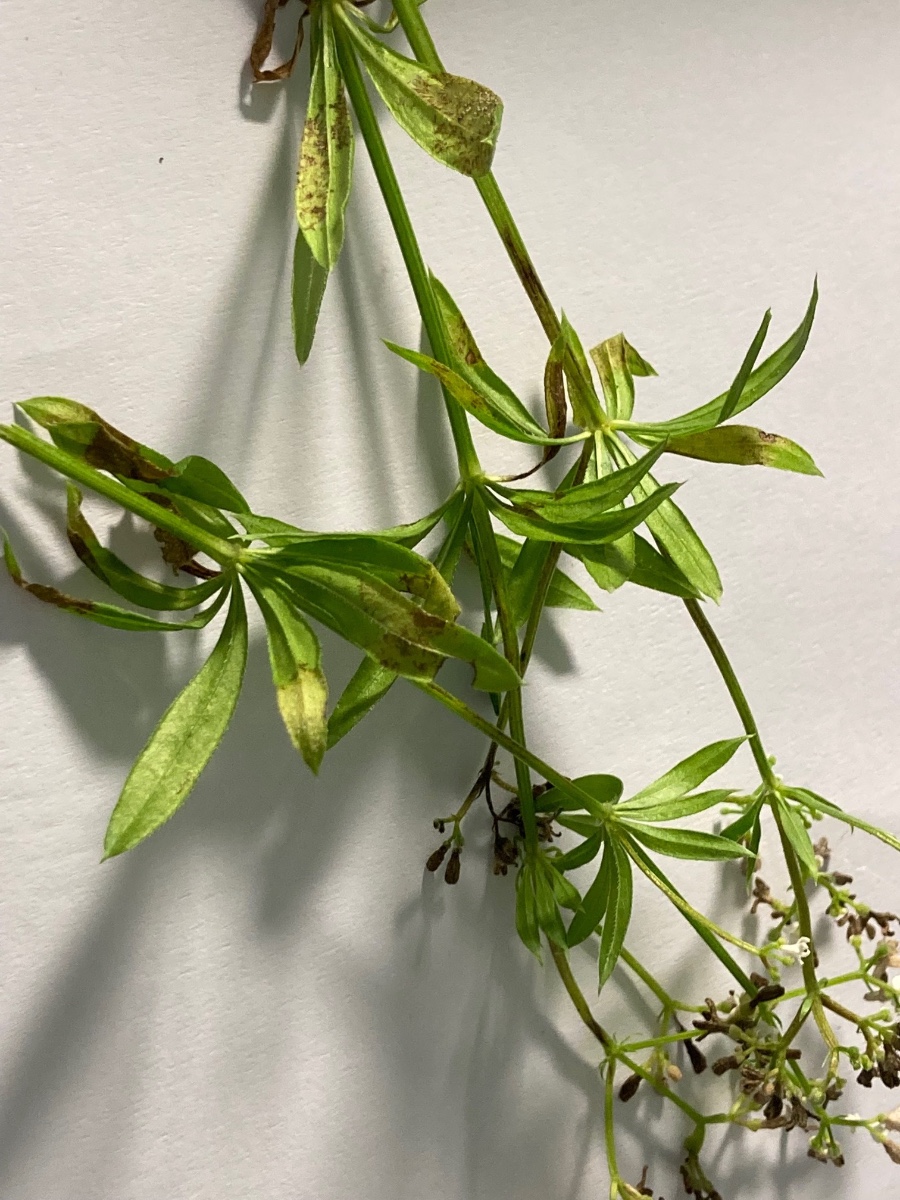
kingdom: Chromista
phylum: Oomycota
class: Peronosporea
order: Peronosporales
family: Peronosporaceae
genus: Peronospora
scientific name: Peronospora calotheca
